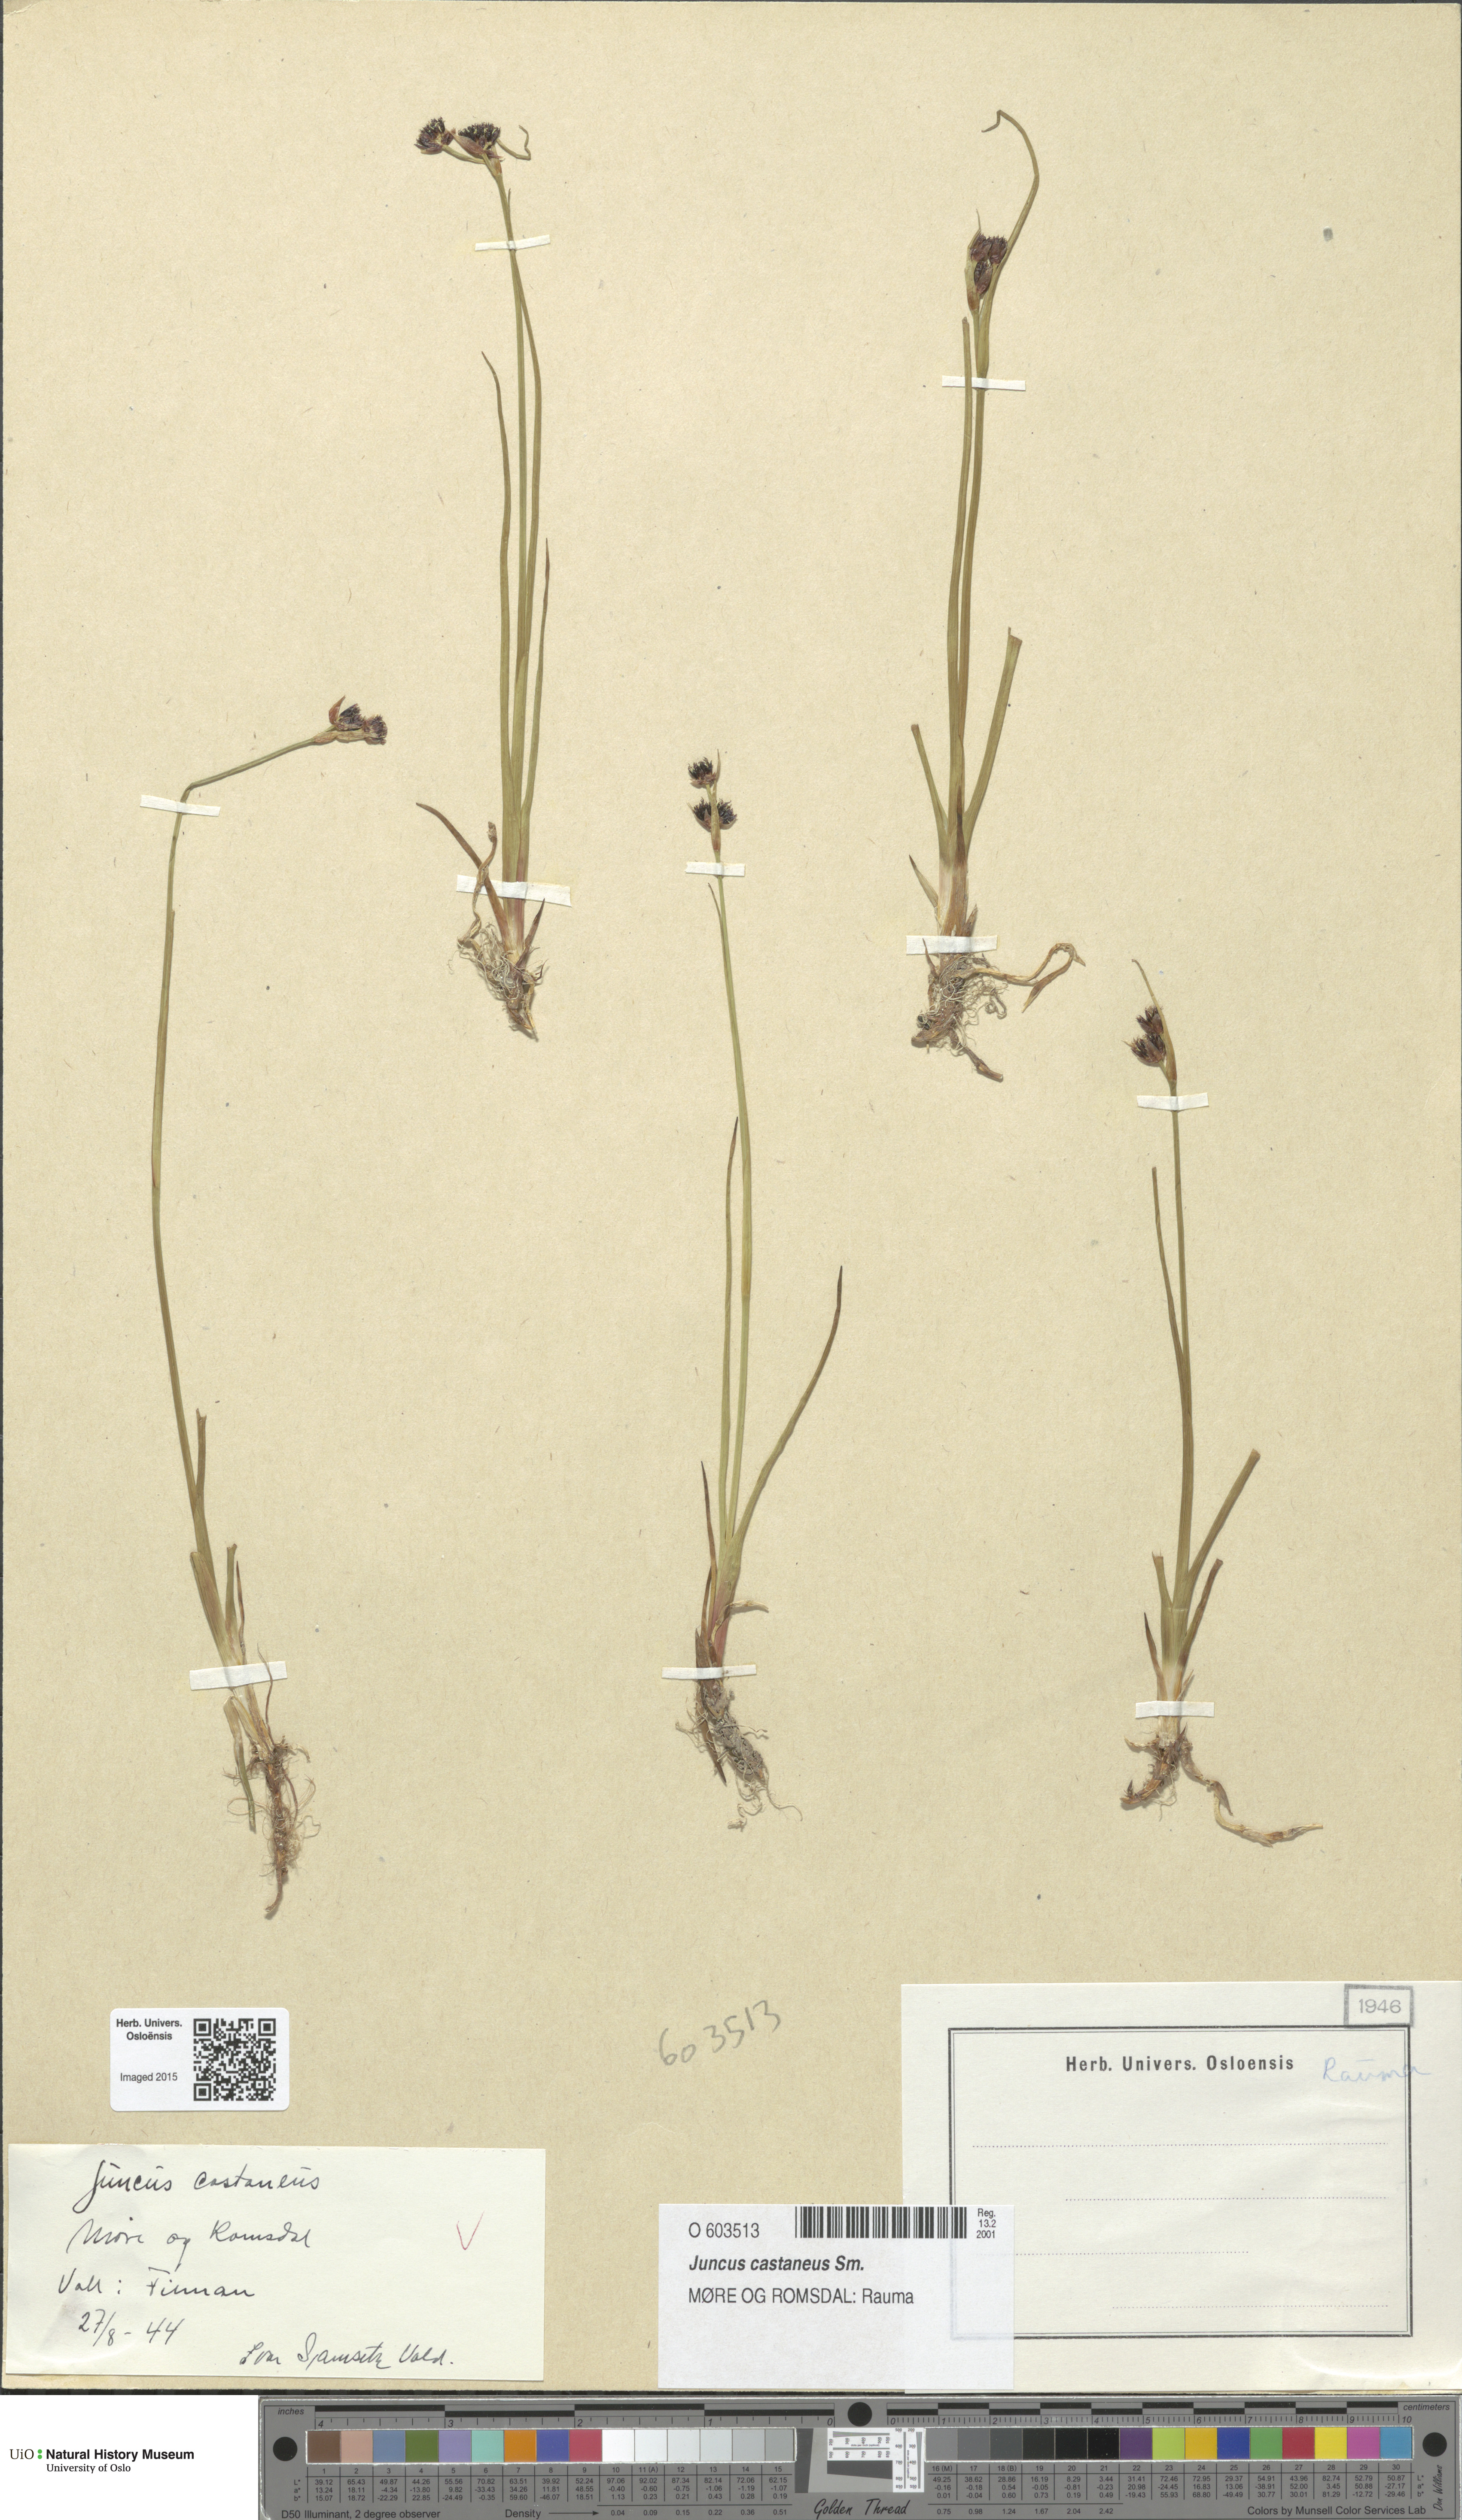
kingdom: Plantae
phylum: Tracheophyta
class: Liliopsida
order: Poales
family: Juncaceae
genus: Juncus
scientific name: Juncus castaneus
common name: Chestnut rush
